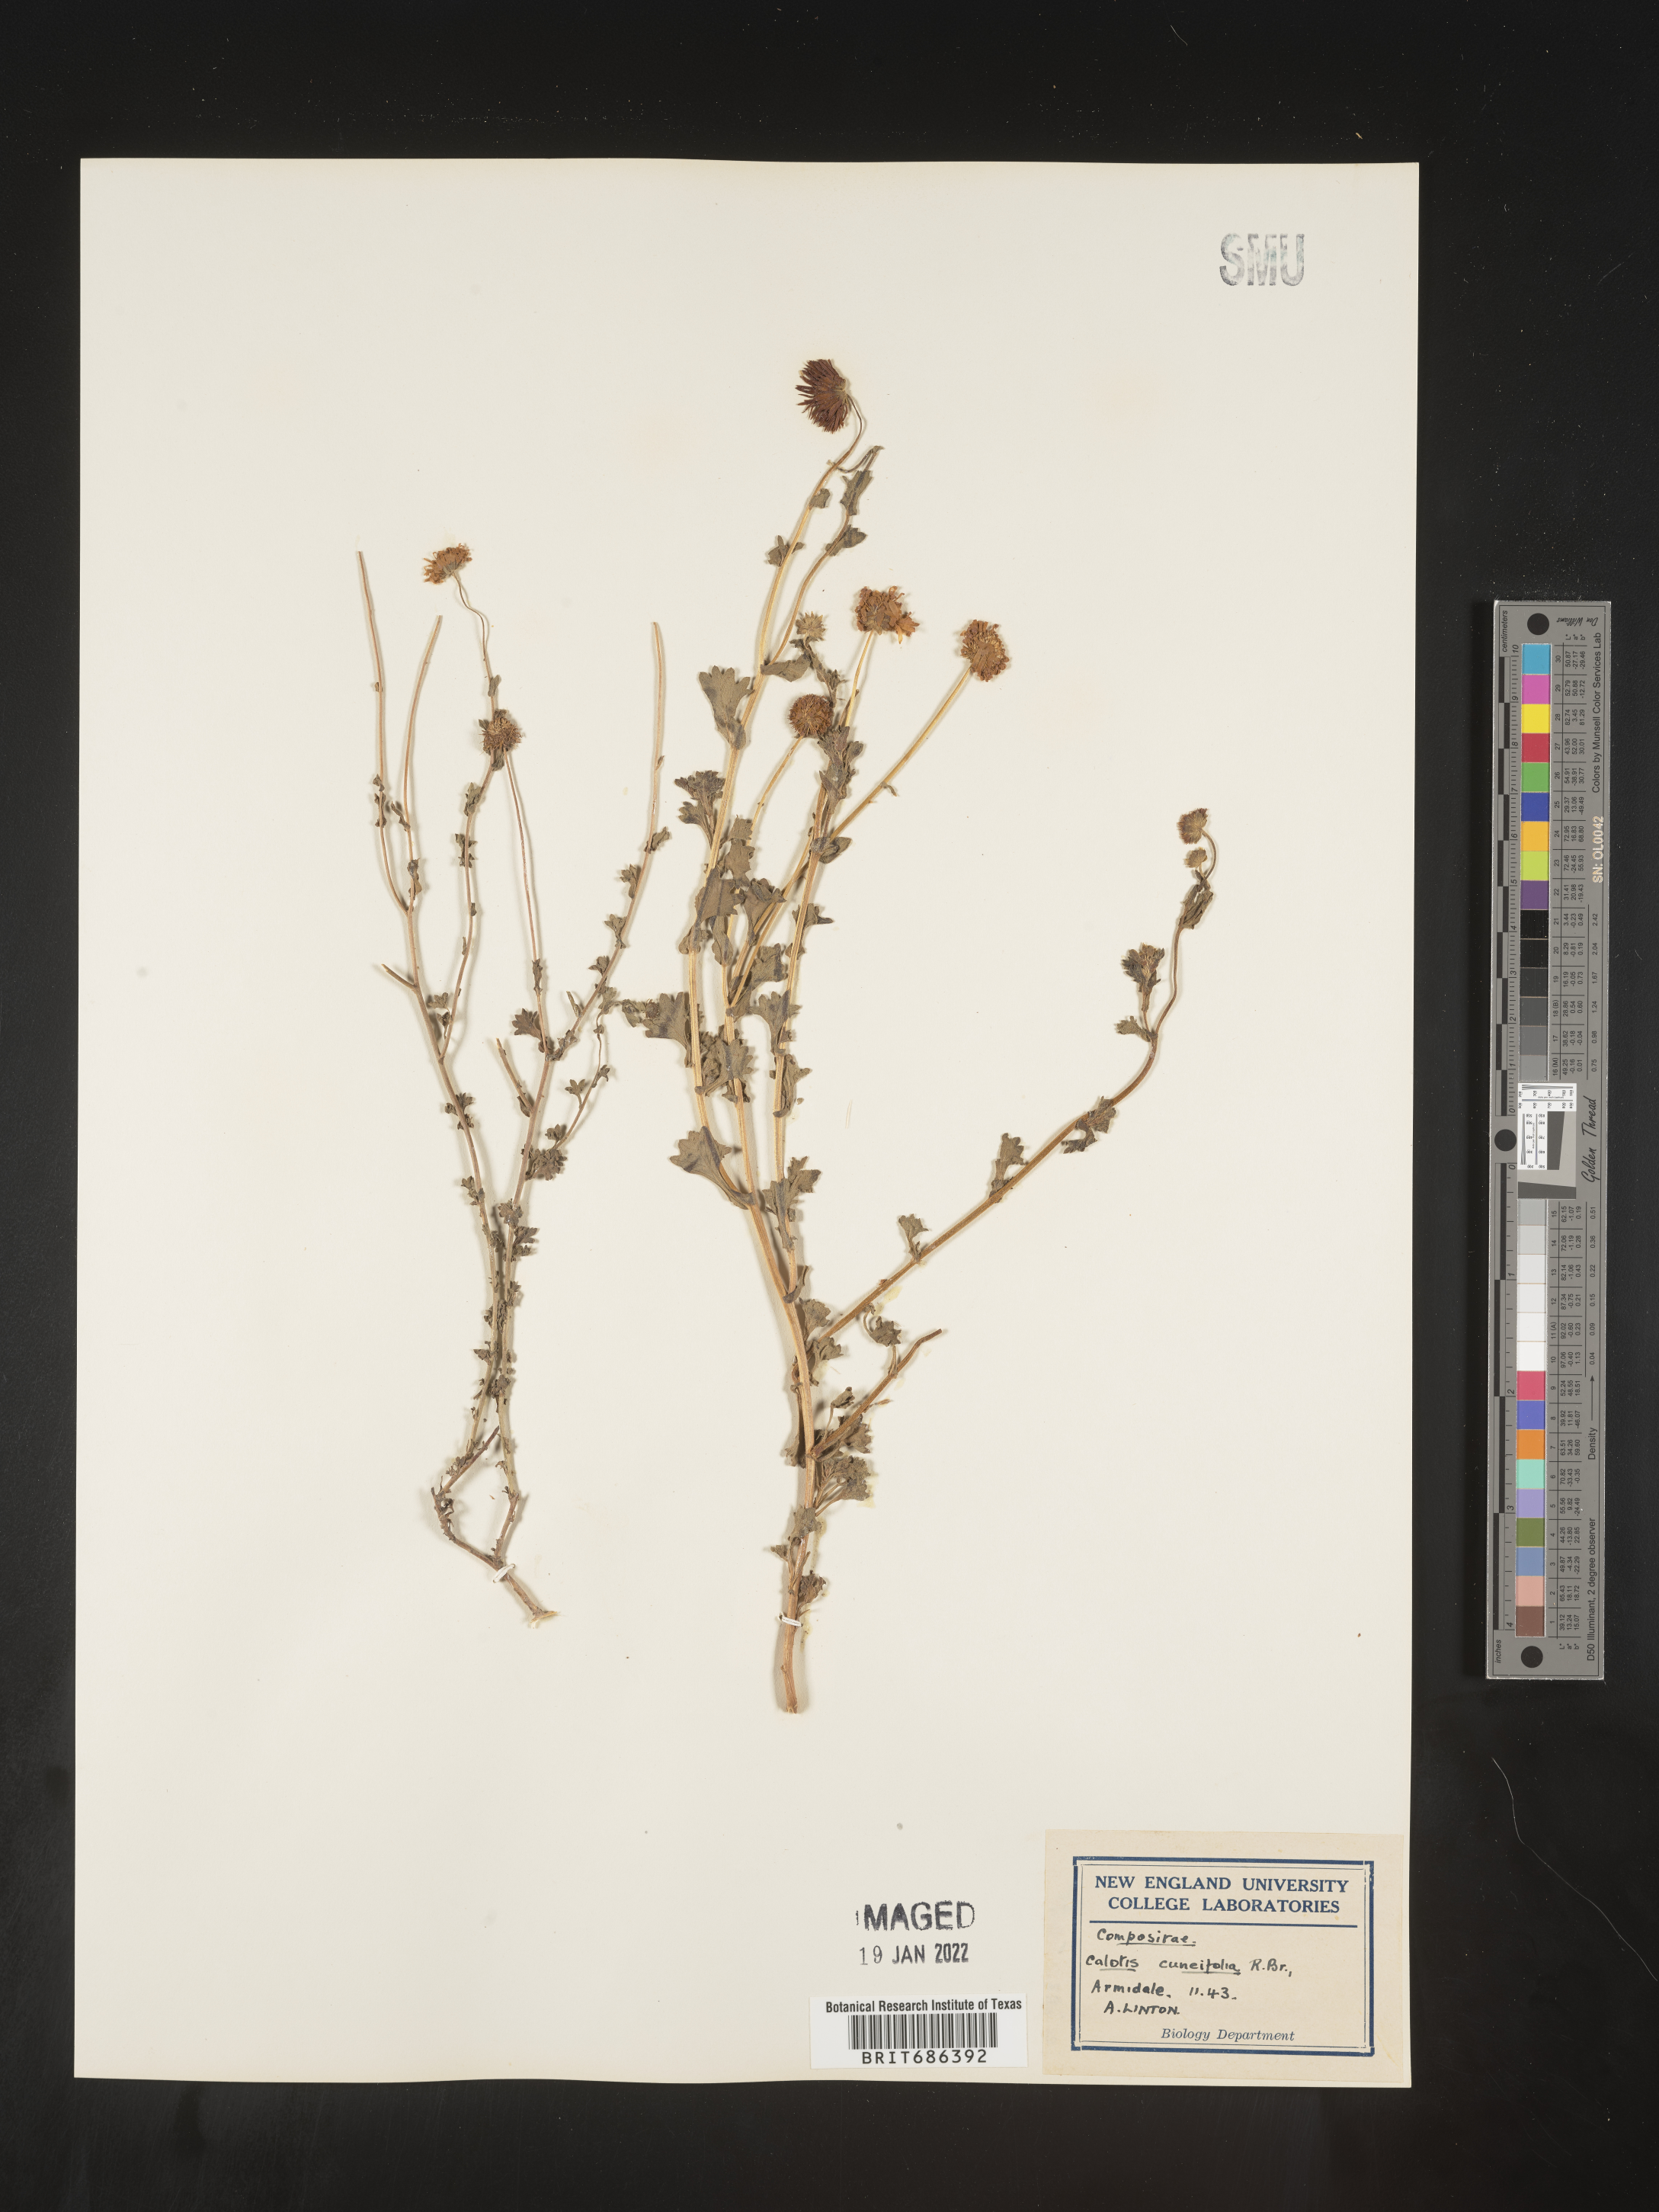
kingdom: Plantae
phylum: Tracheophyta
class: Magnoliopsida
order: Asterales
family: Asteraceae
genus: Calotis
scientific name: Calotis
